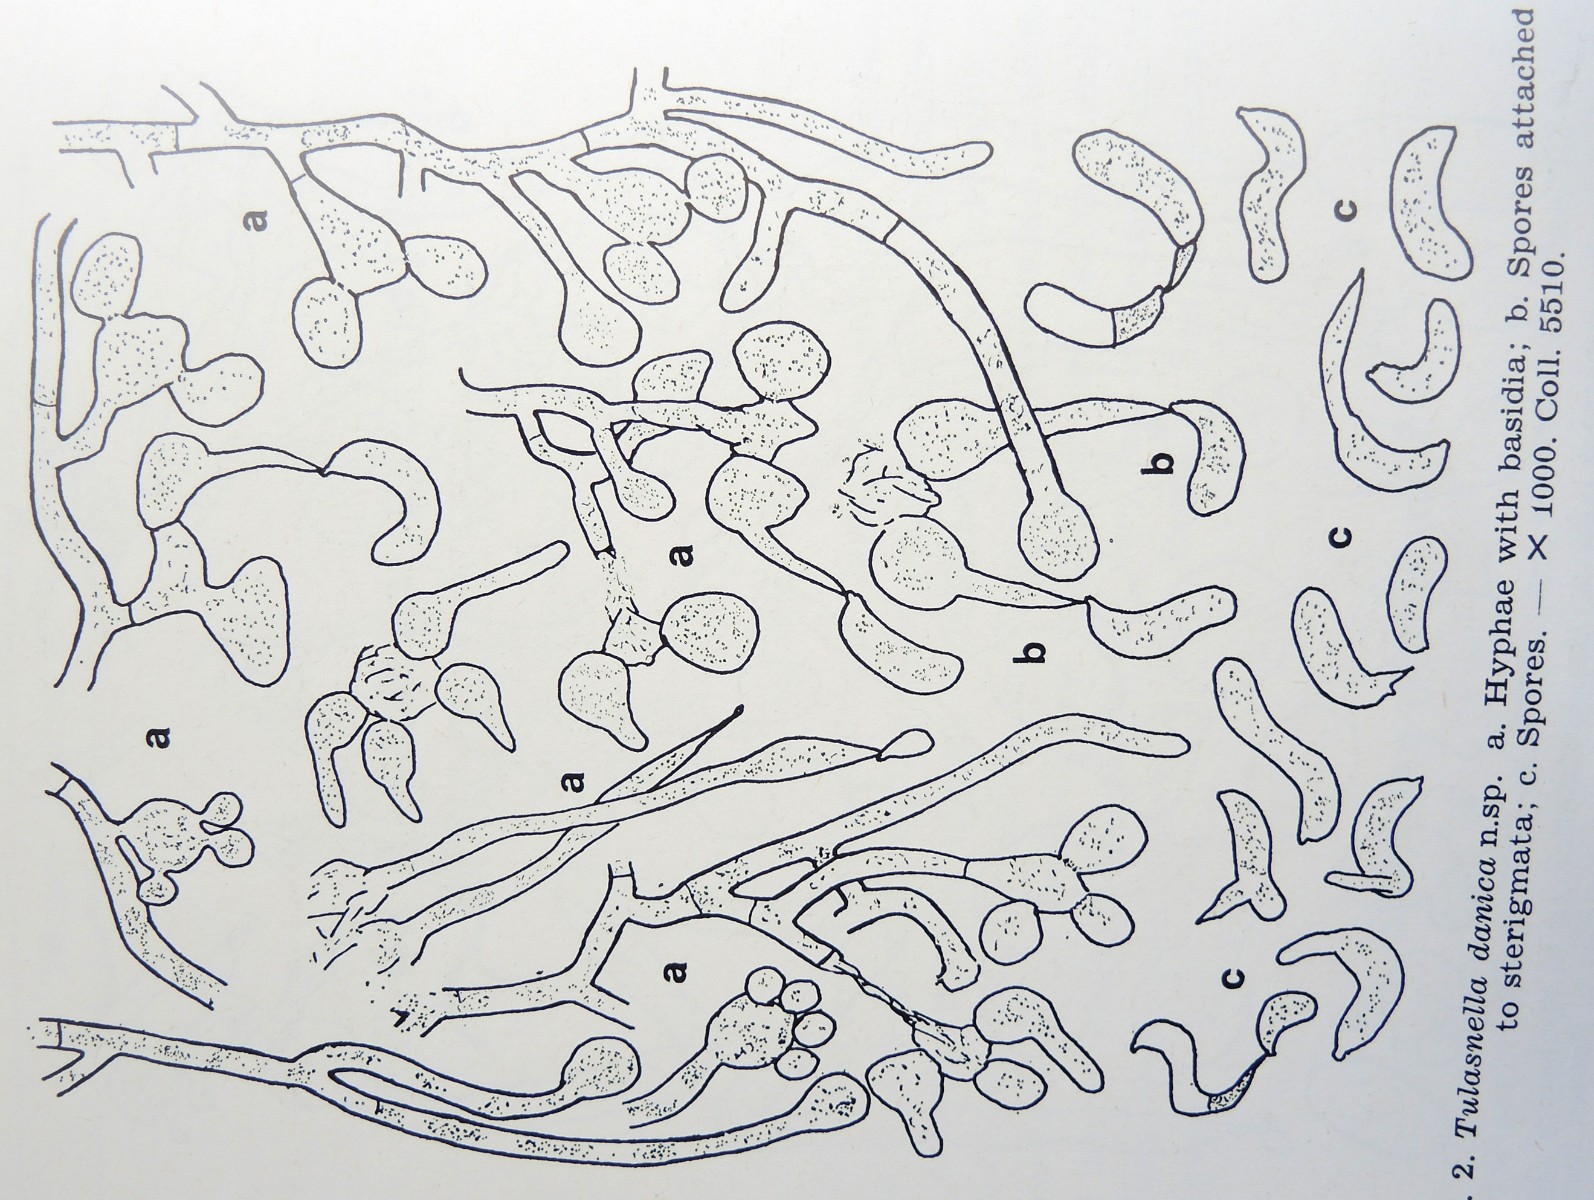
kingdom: Fungi
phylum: Basidiomycota
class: Agaricomycetes
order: Cantharellales
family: Tulasnellaceae
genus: Tulasnella
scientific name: Tulasnella danica
